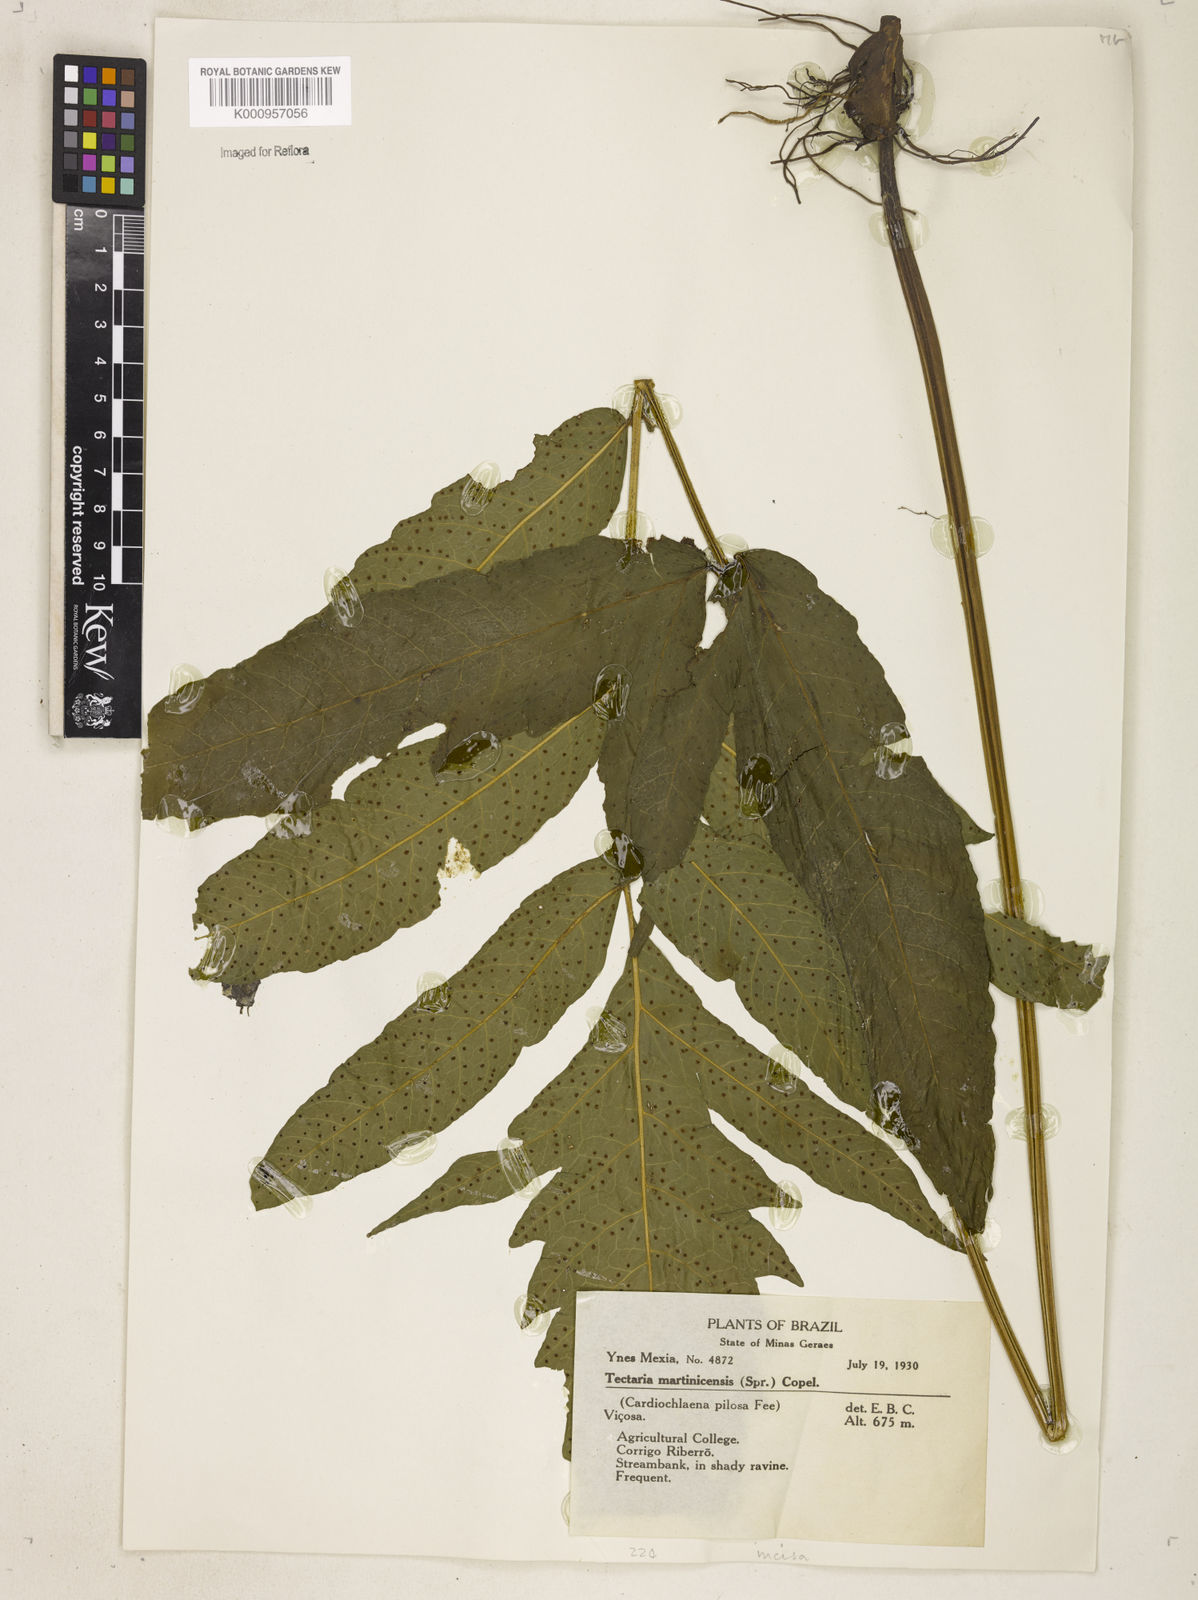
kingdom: Plantae
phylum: Tracheophyta
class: Polypodiopsida
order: Polypodiales
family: Tectariaceae
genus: Tectaria
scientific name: Tectaria incisa
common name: Incised halberd fern
